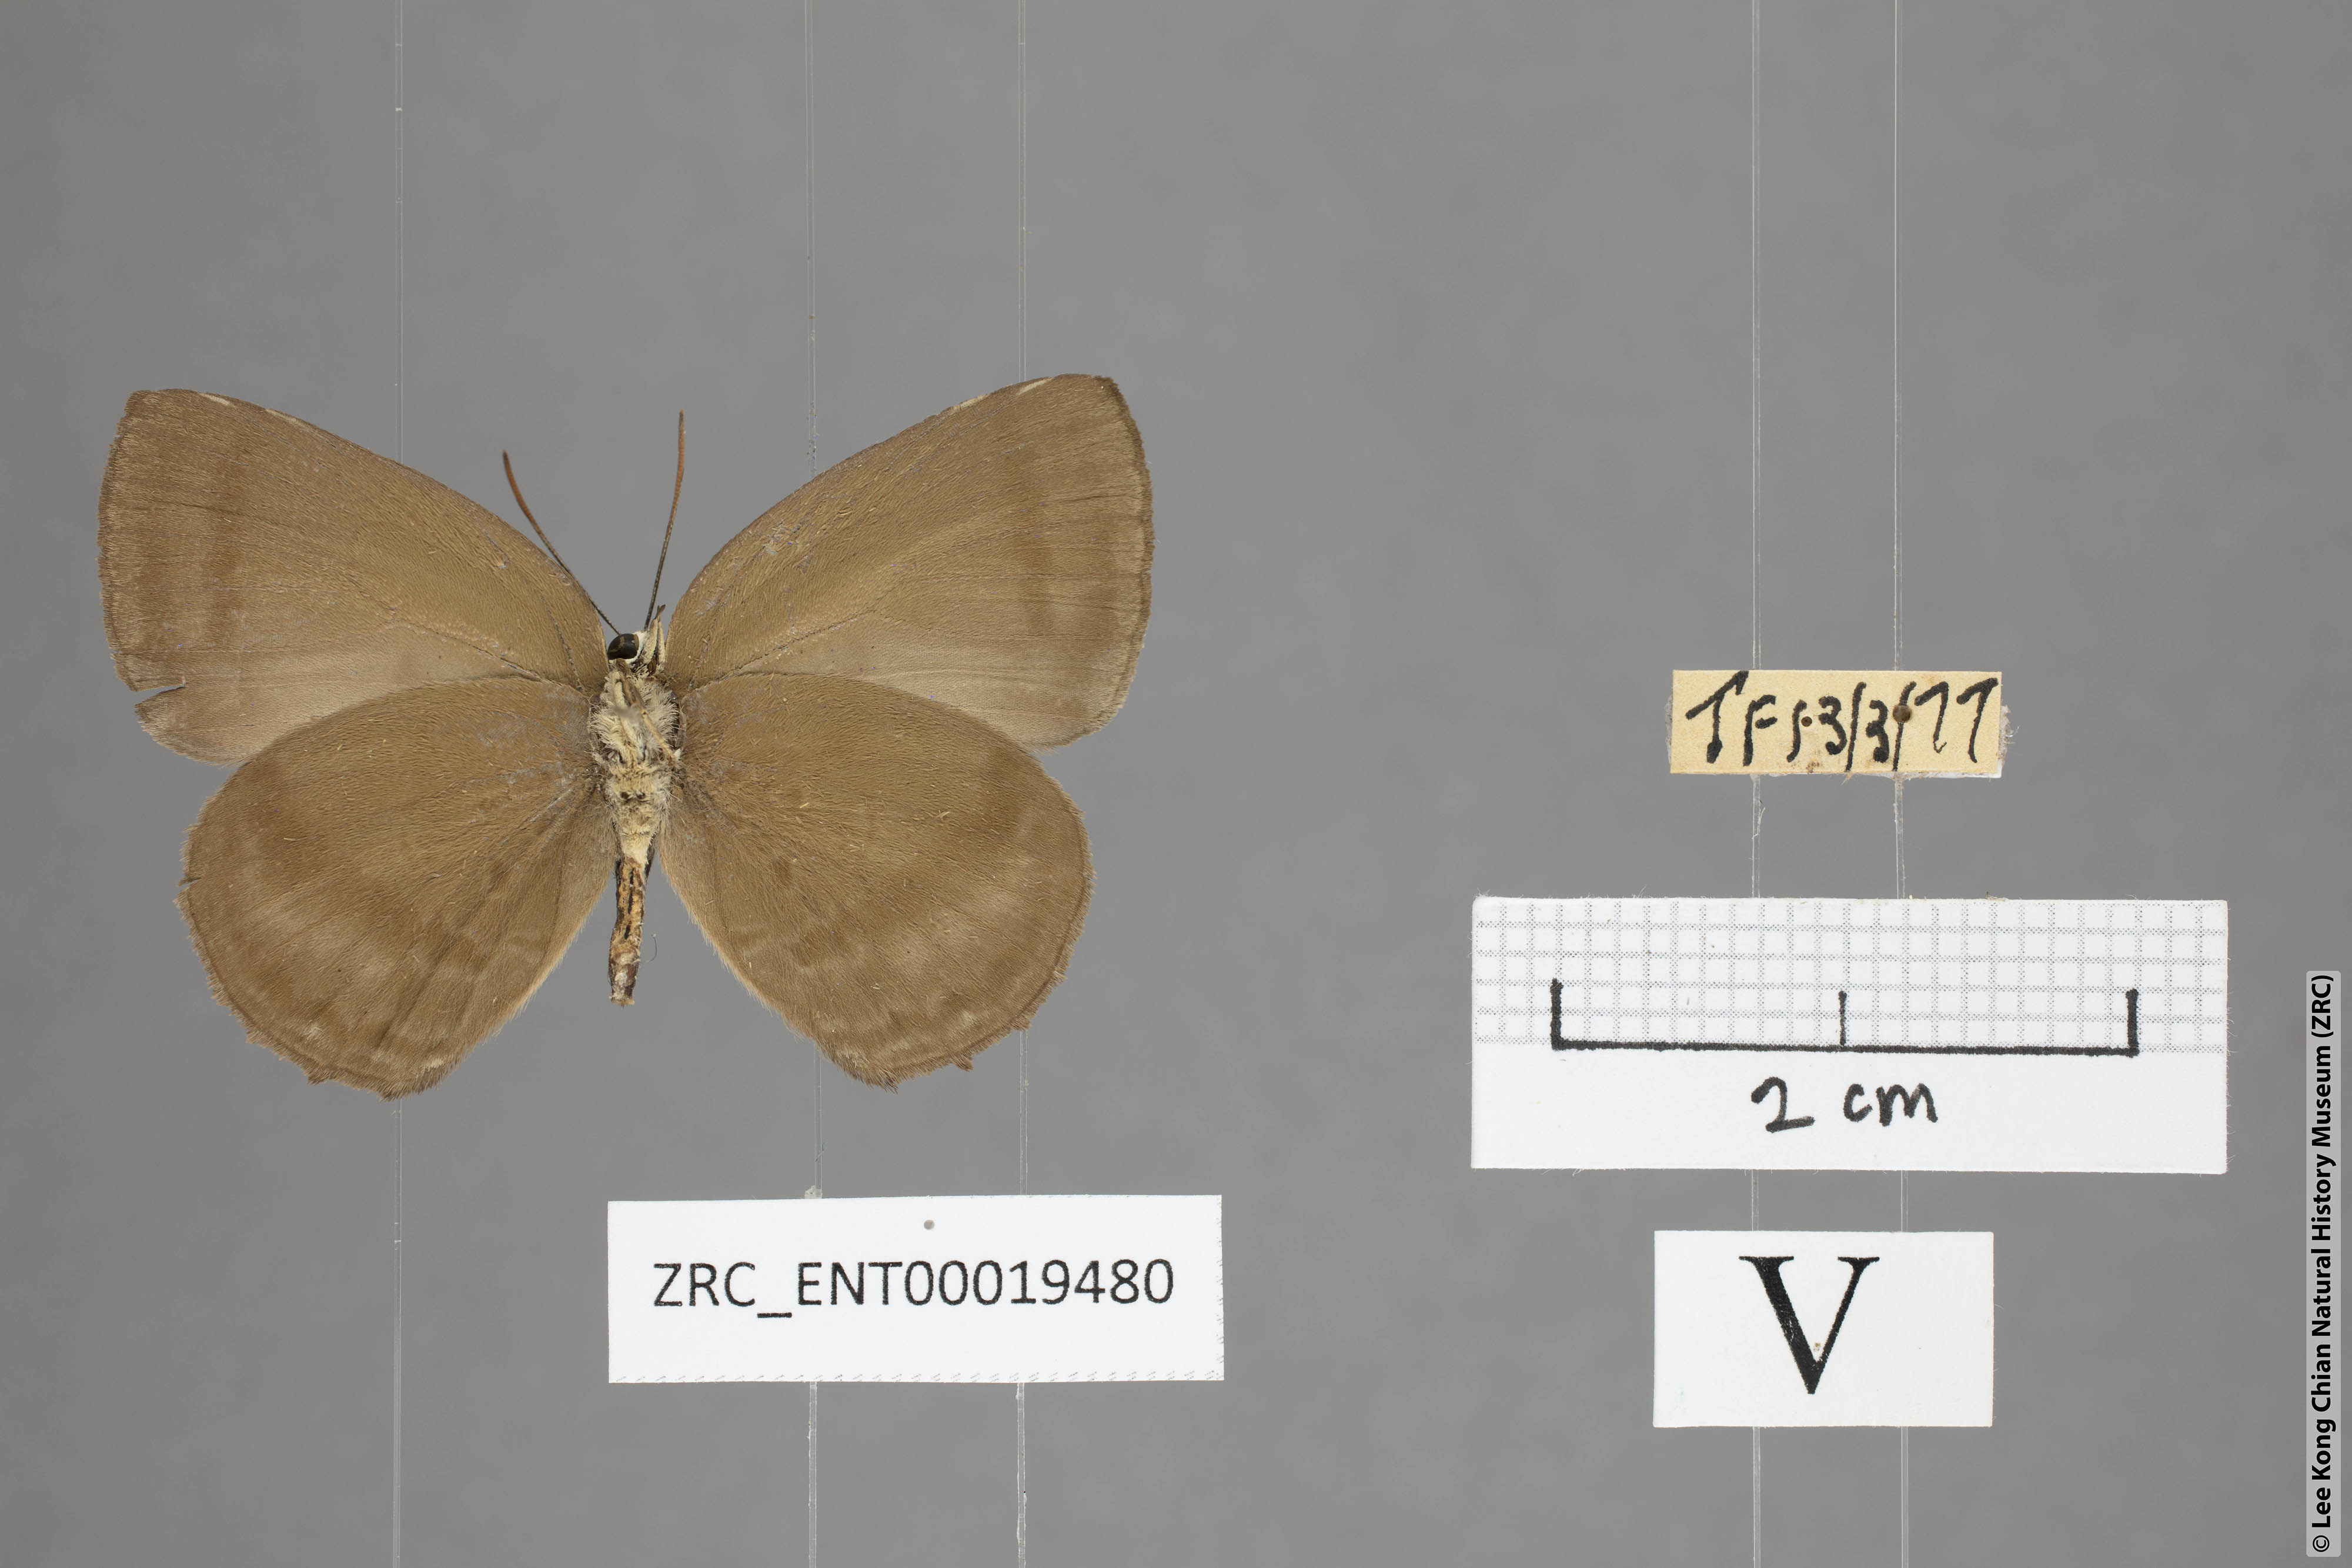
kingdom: Animalia
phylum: Arthropoda
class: Insecta
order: Lepidoptera
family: Lycaenidae
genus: Arhopala
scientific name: Arhopala fulla
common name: Spotless oakblue
